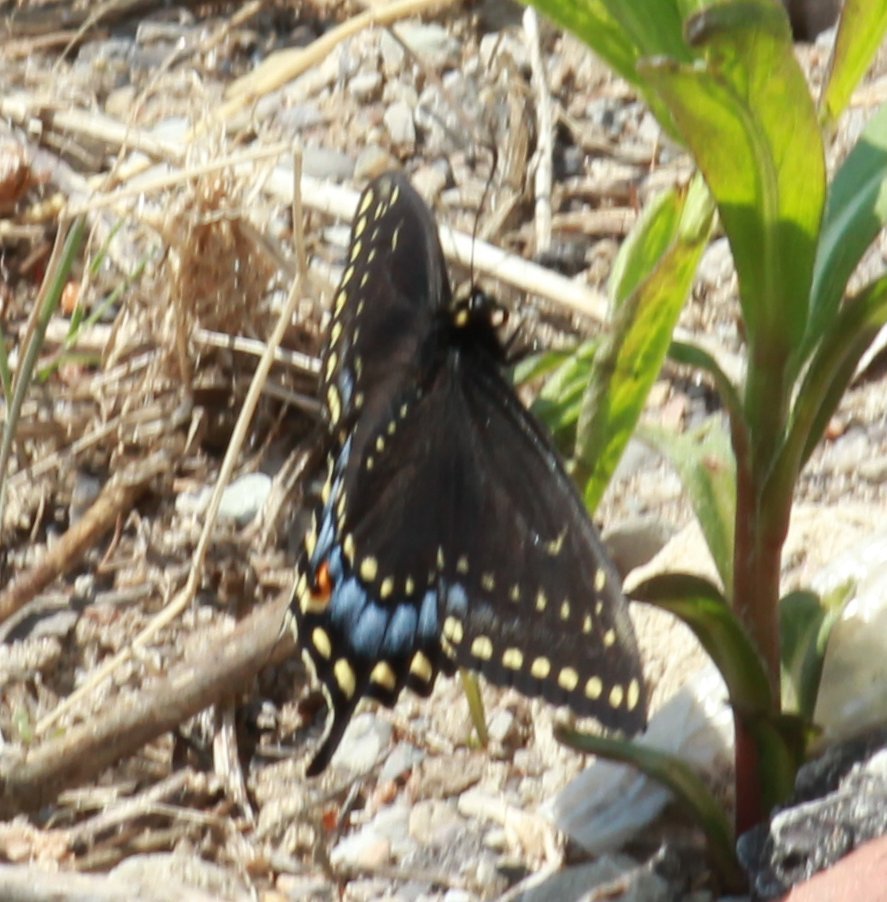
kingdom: Animalia
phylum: Arthropoda
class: Insecta
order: Lepidoptera
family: Papilionidae
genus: Papilio
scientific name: Papilio polyxenes
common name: Black Swallowtail
